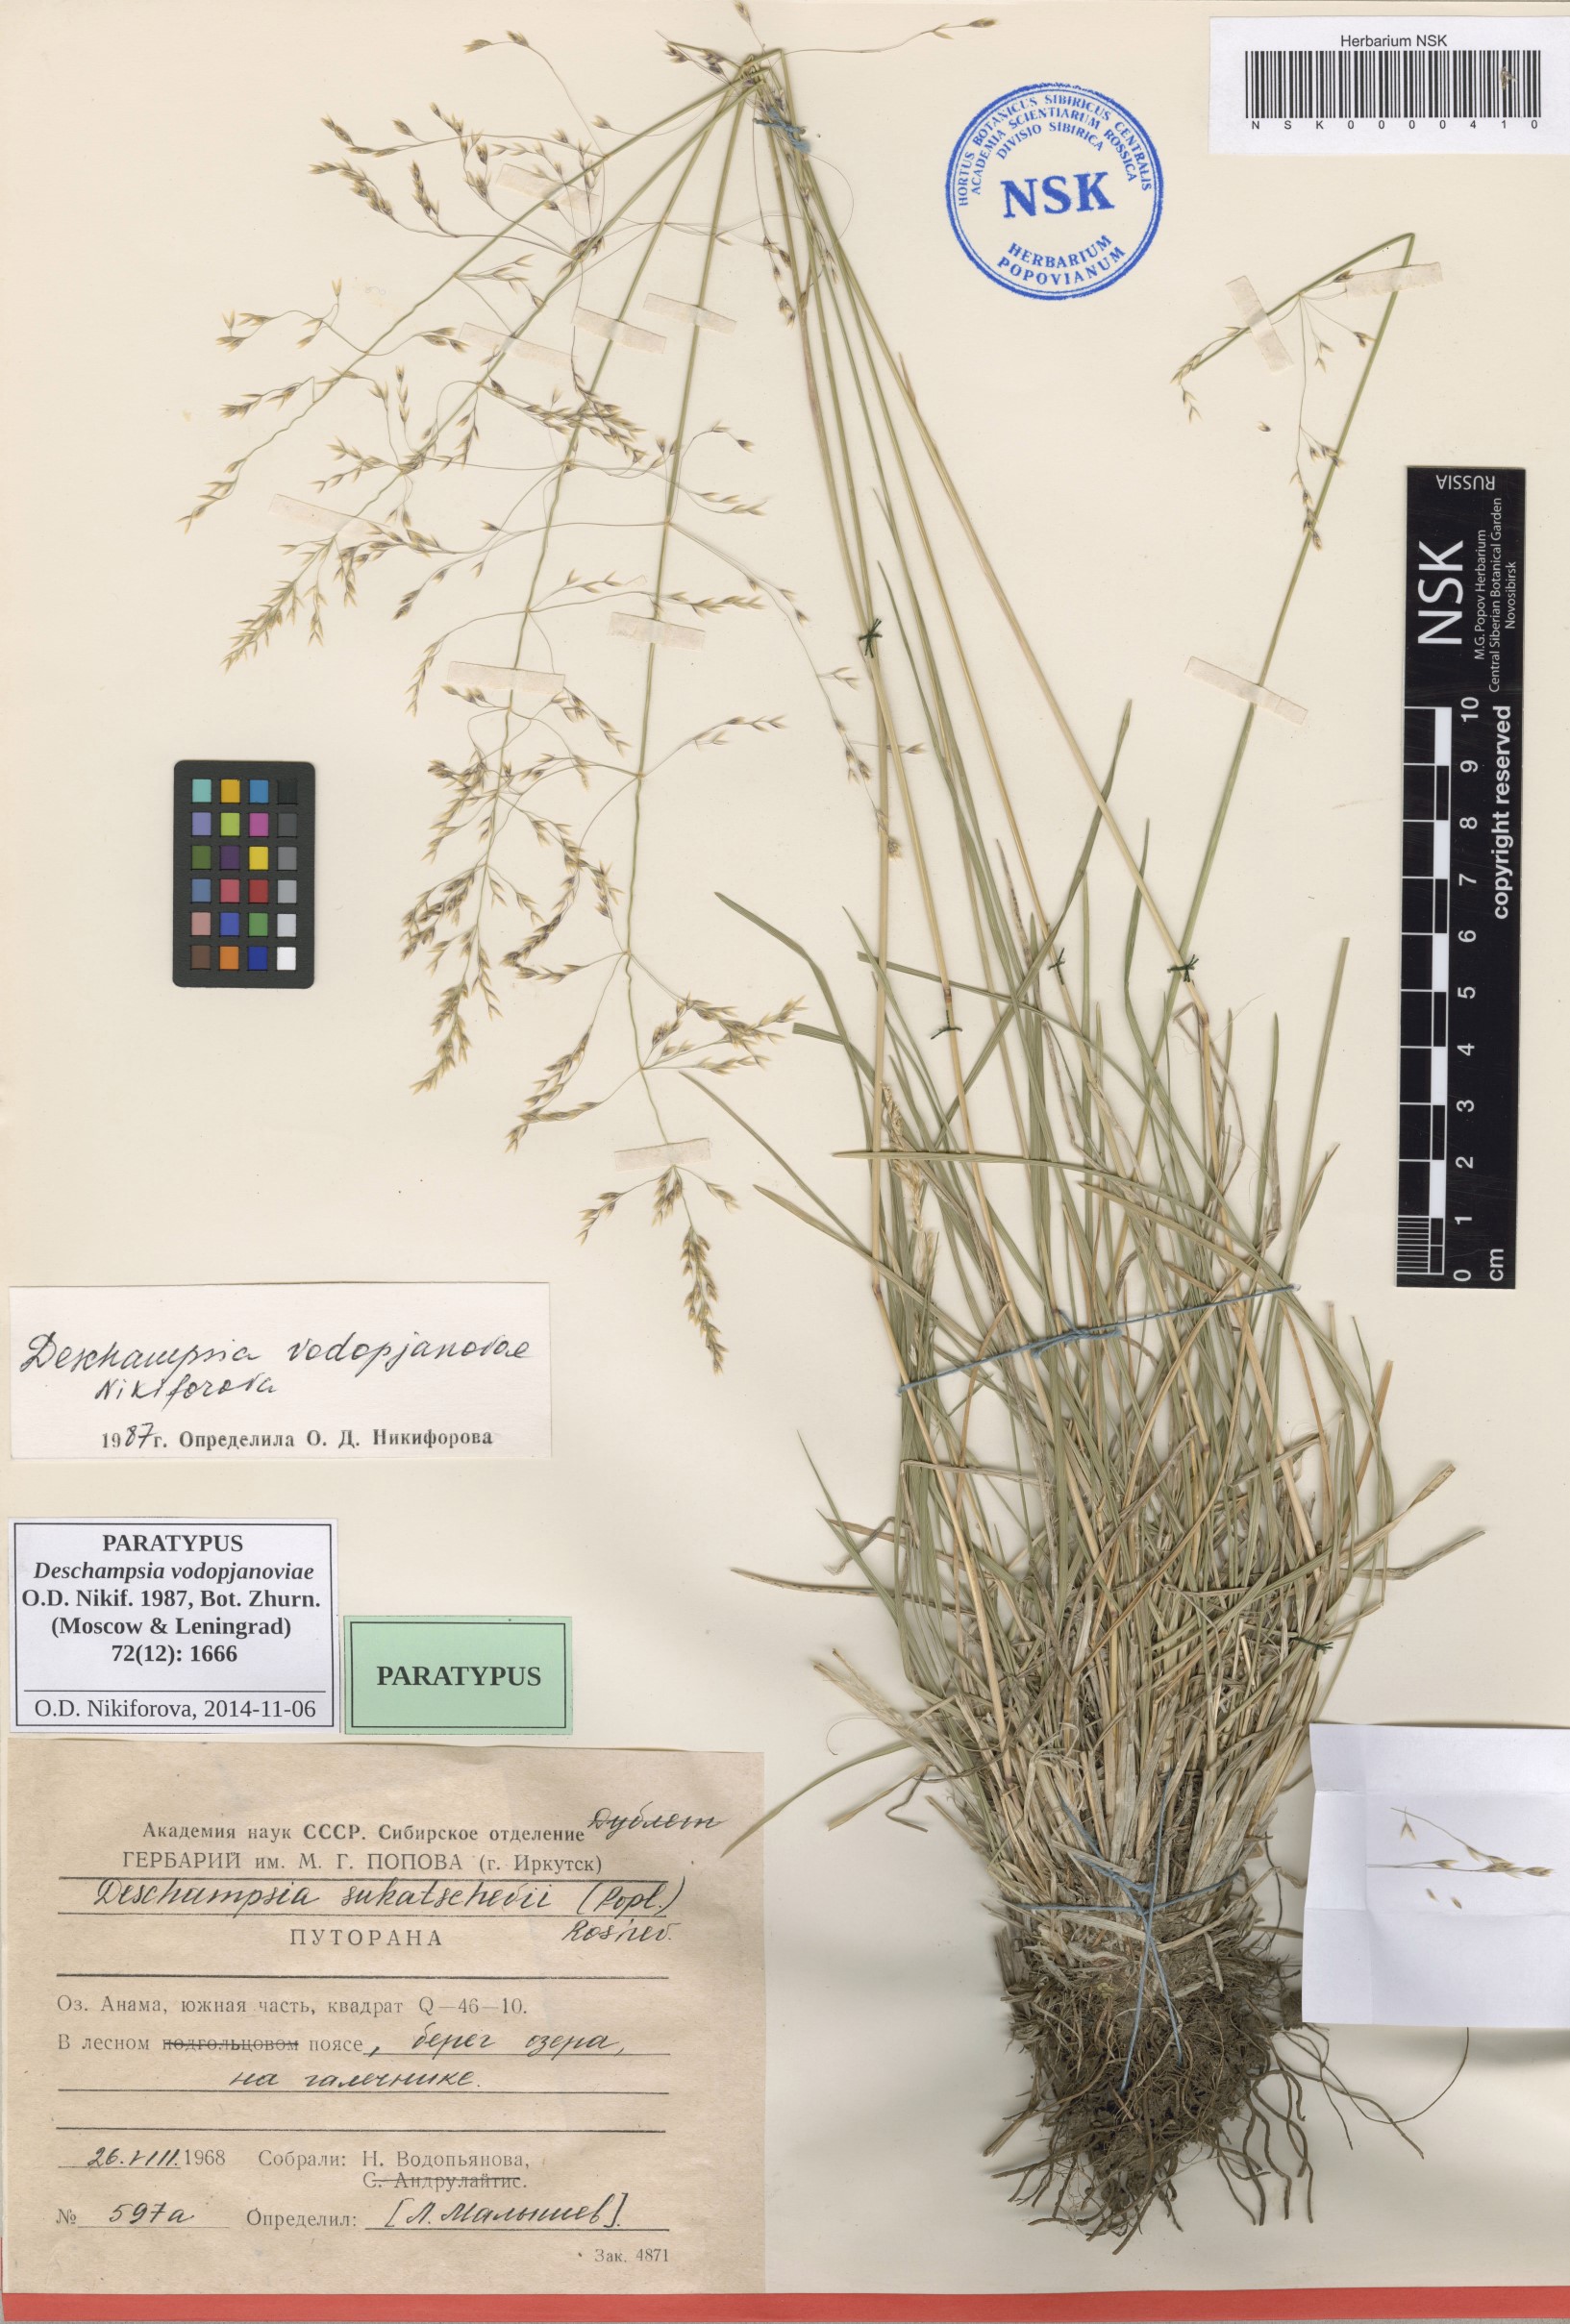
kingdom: Plantae
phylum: Tracheophyta
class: Liliopsida
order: Poales
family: Poaceae
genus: Deschampsia
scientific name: Deschampsia cespitosa
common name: Tufted hair-grass
